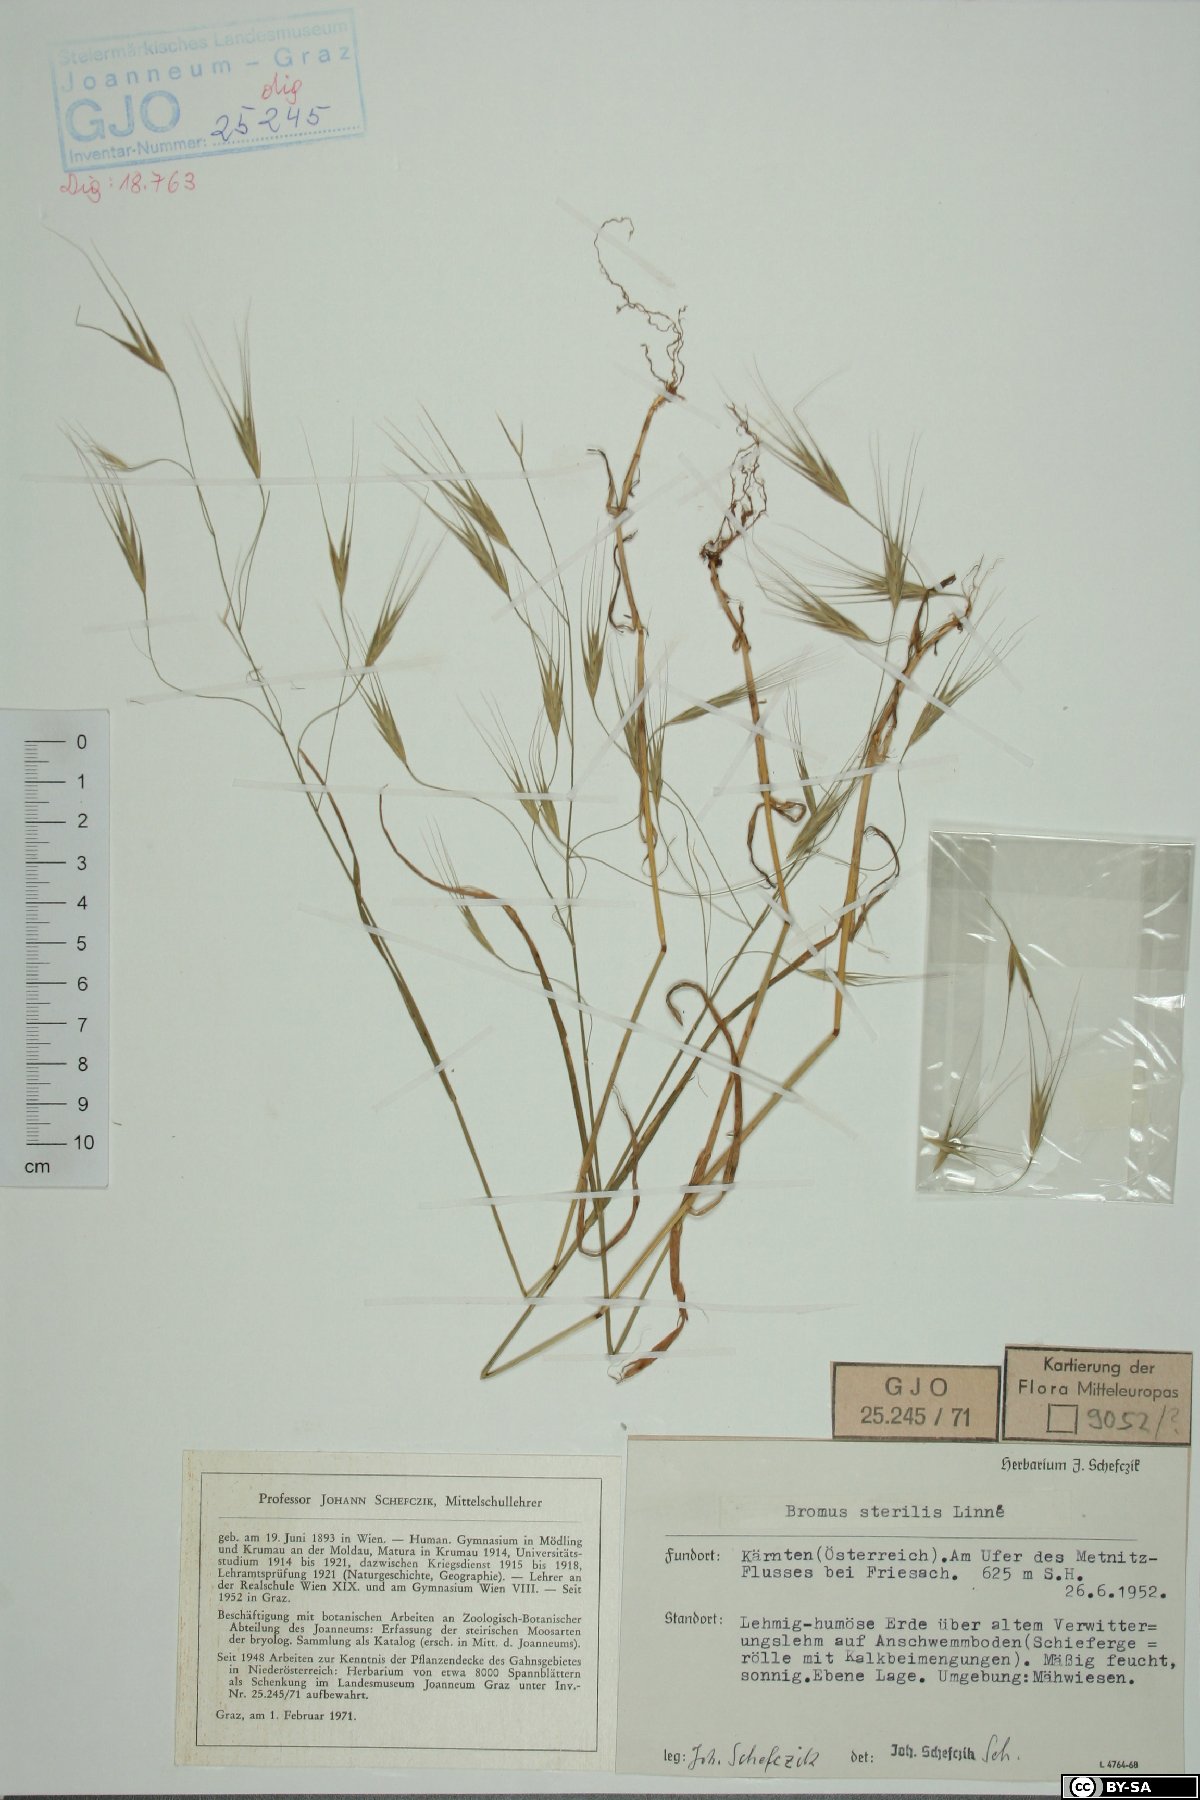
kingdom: Plantae
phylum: Tracheophyta
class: Liliopsida
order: Poales
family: Poaceae
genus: Bromus
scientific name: Bromus sterilis
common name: Poverty brome
